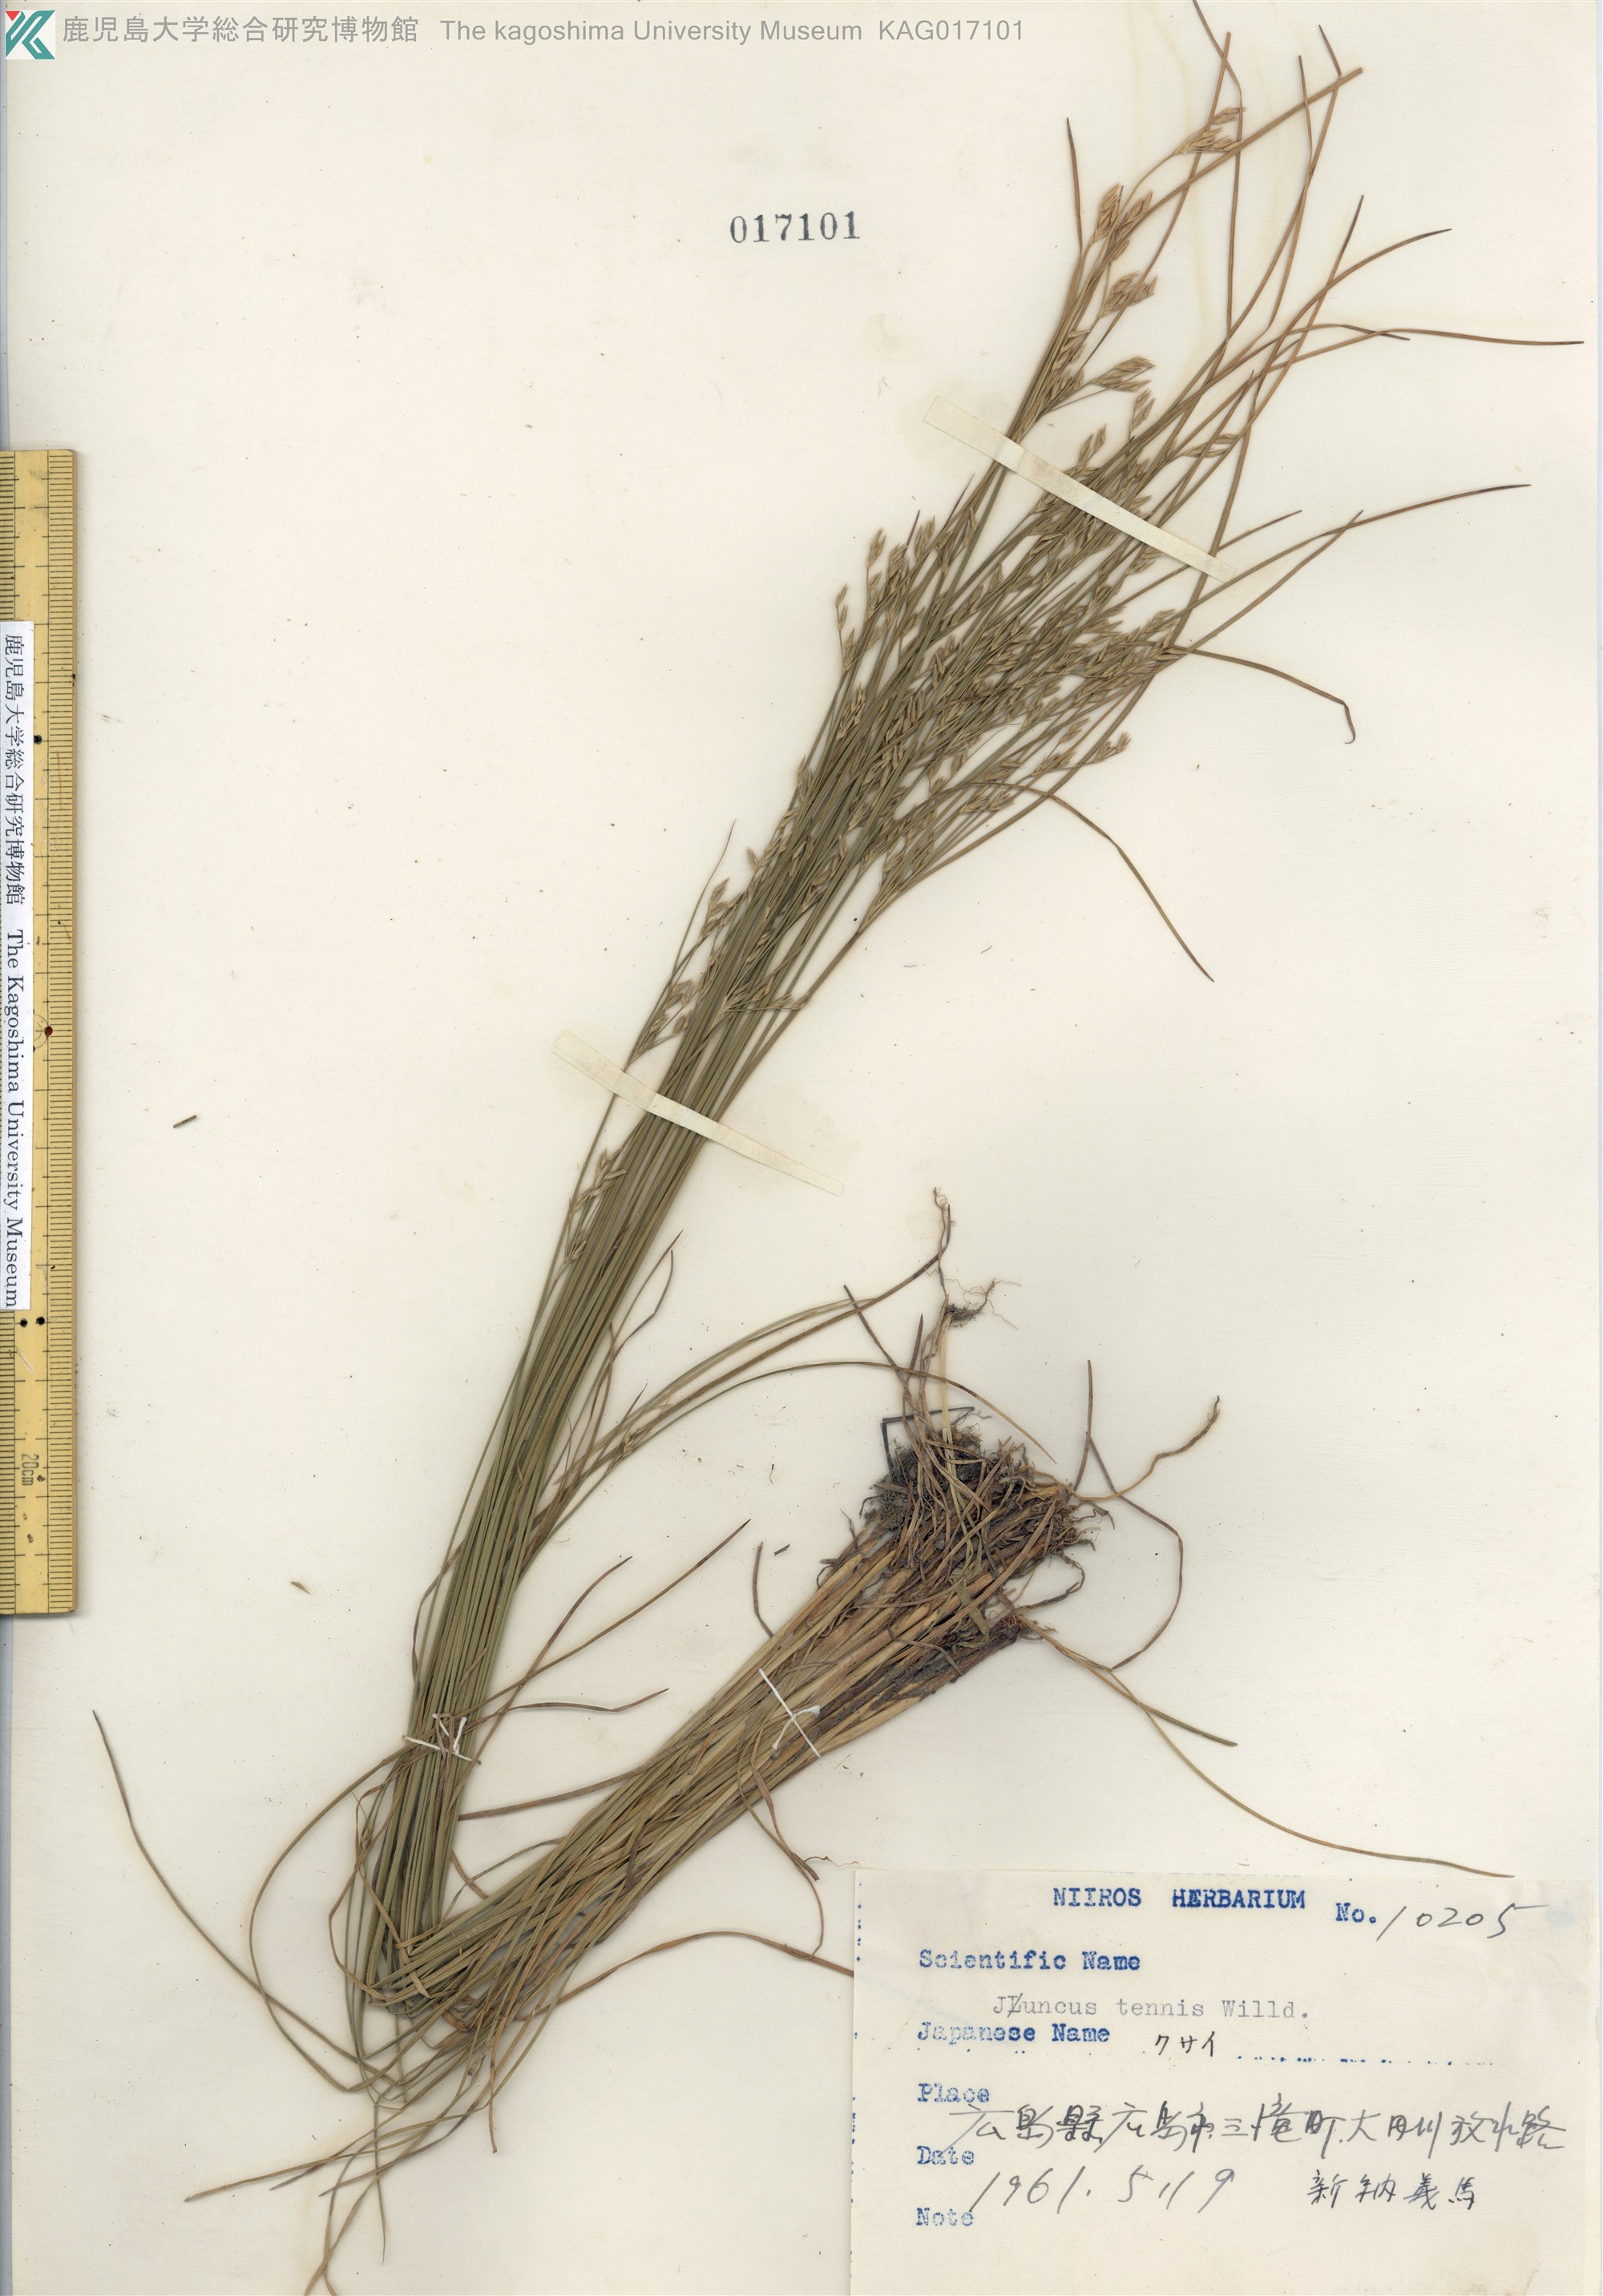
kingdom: Plantae
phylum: Tracheophyta
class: Liliopsida
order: Poales
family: Juncaceae
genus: Juncus
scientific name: Juncus tenuis
